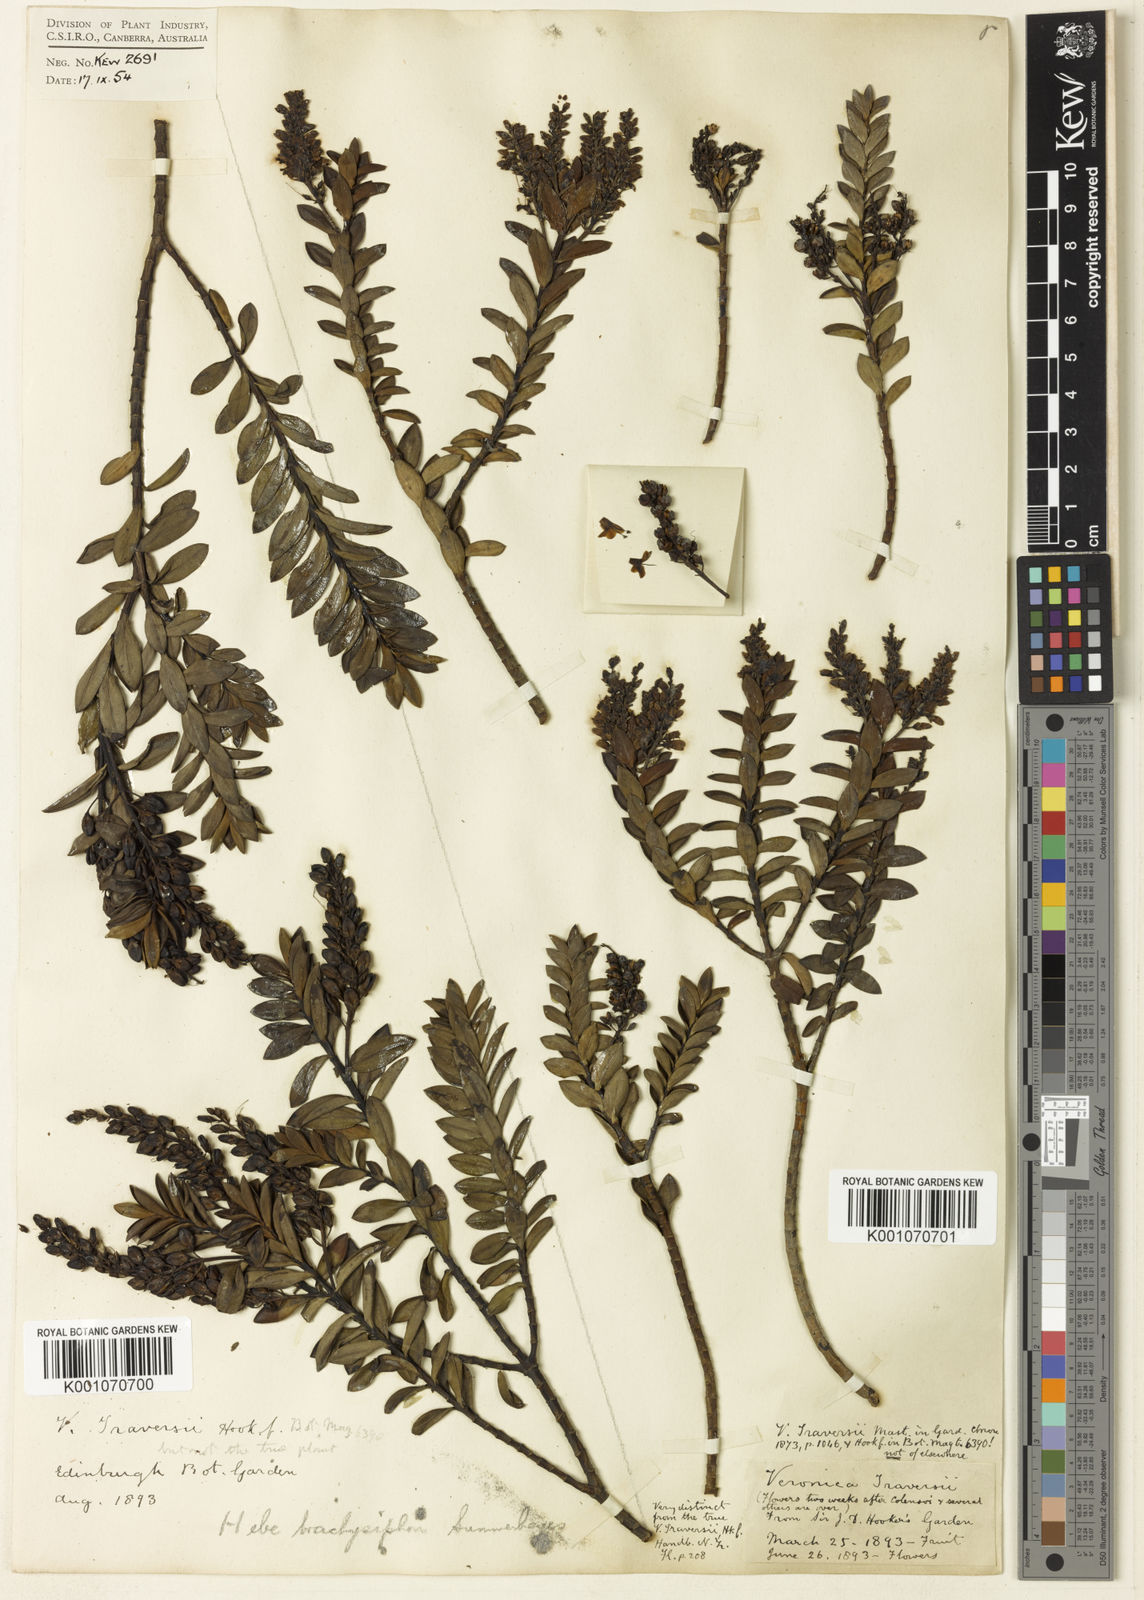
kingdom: Plantae
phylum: Tracheophyta
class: Magnoliopsida
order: Lamiales
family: Plantaginaceae
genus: Veronica
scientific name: Veronica brachysiphon
